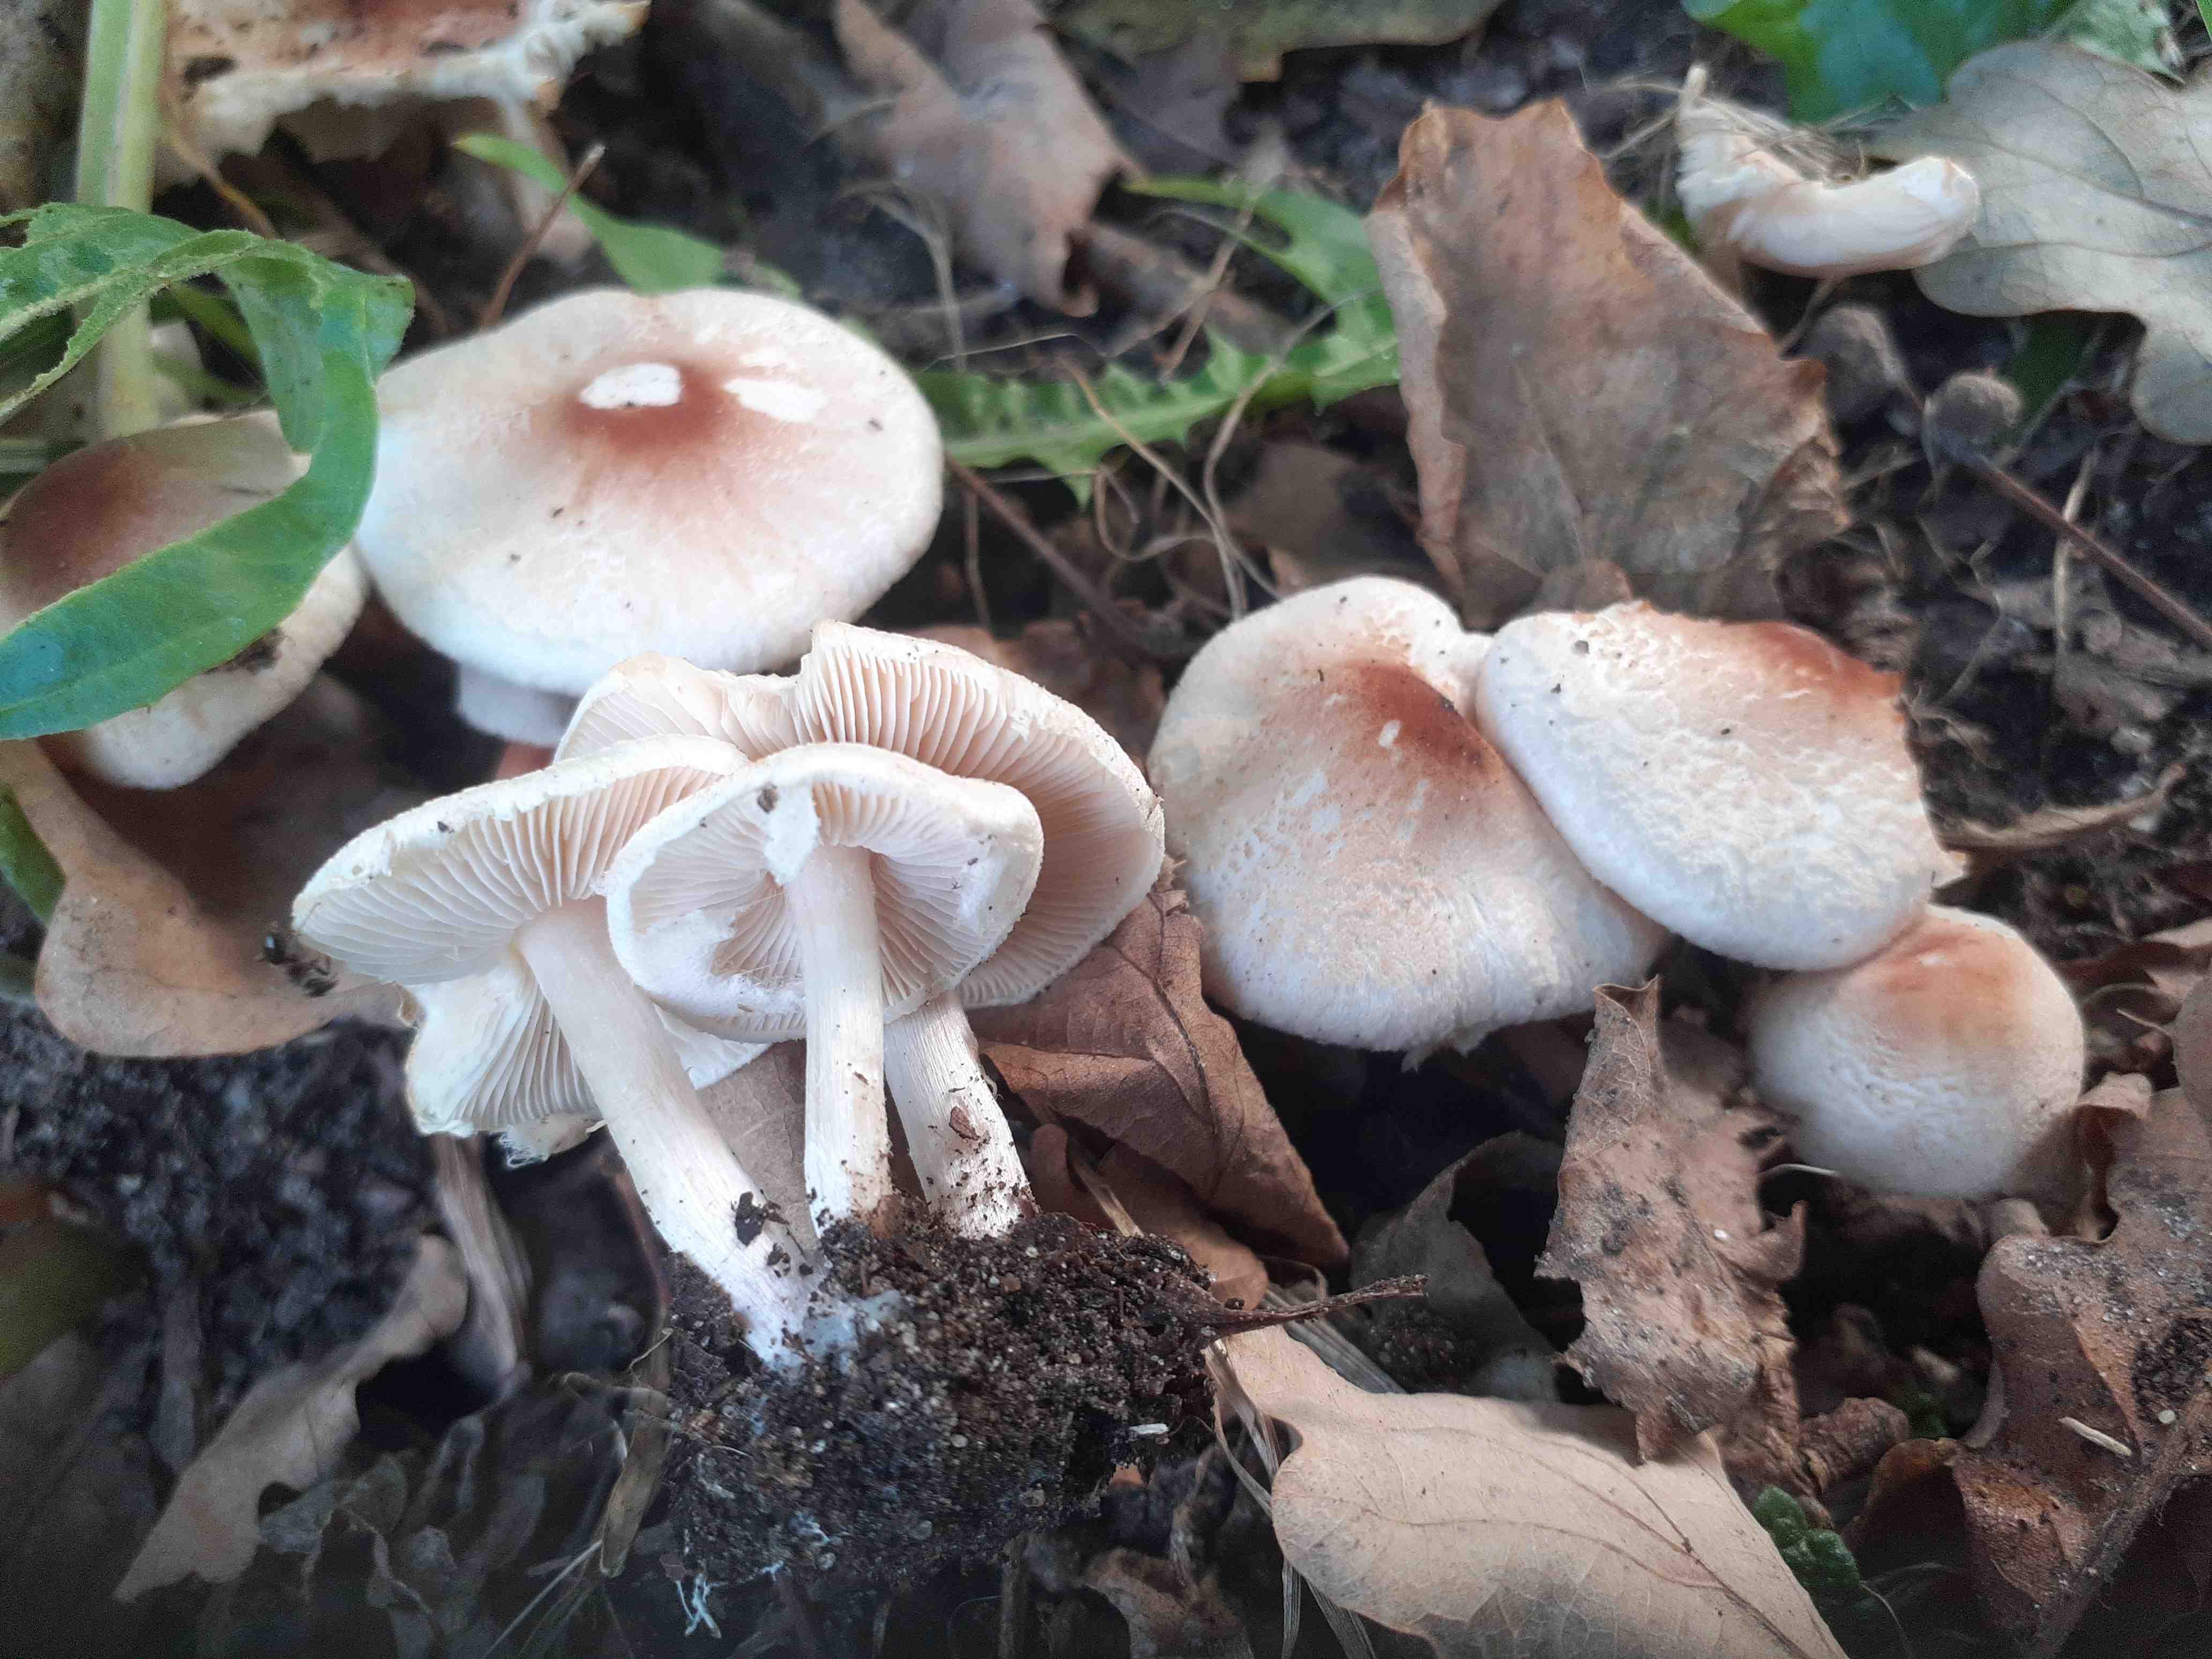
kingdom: Fungi
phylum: Basidiomycota
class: Agaricomycetes
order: Agaricales
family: Agaricaceae
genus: Lepiota
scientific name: Lepiota cristata
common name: stinkende parasolhat
